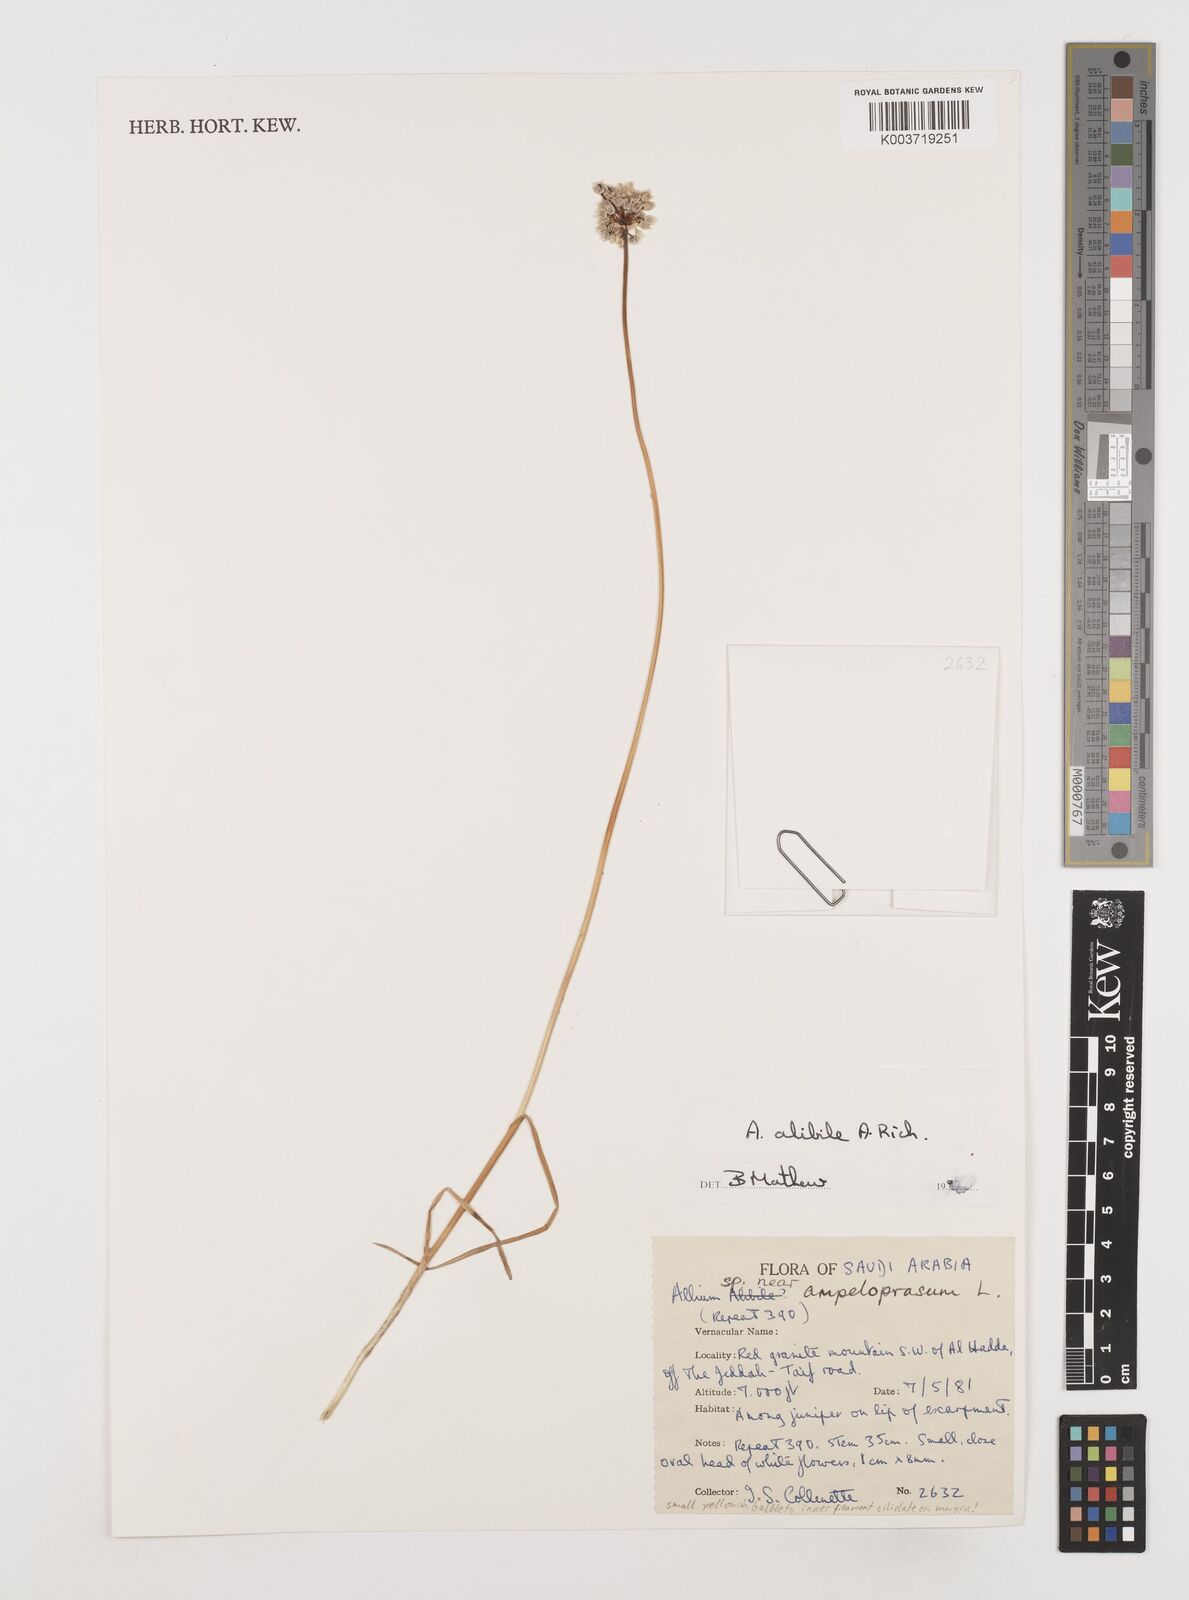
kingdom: Plantae
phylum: Tracheophyta
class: Liliopsida
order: Asparagales
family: Amaryllidaceae
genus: Allium
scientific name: Allium alibile
